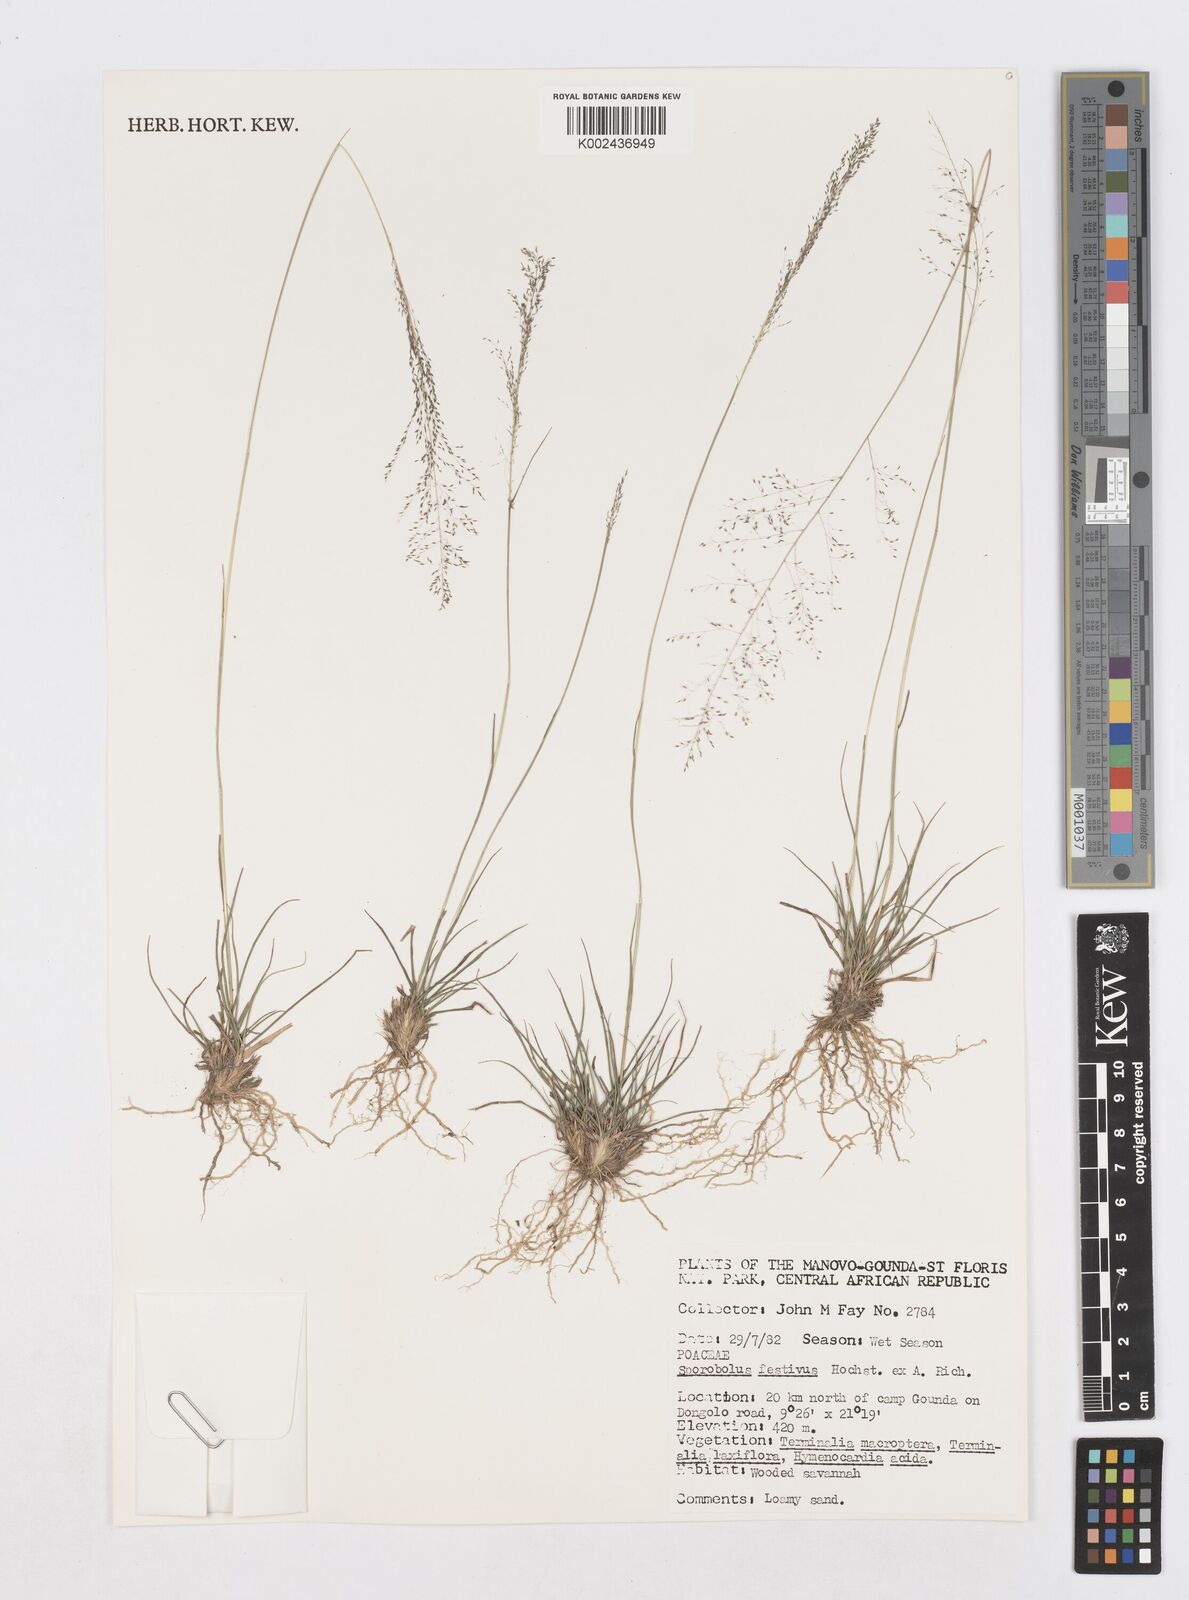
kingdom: Plantae
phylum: Tracheophyta
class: Liliopsida
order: Poales
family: Poaceae
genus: Sporobolus
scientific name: Sporobolus festivus
